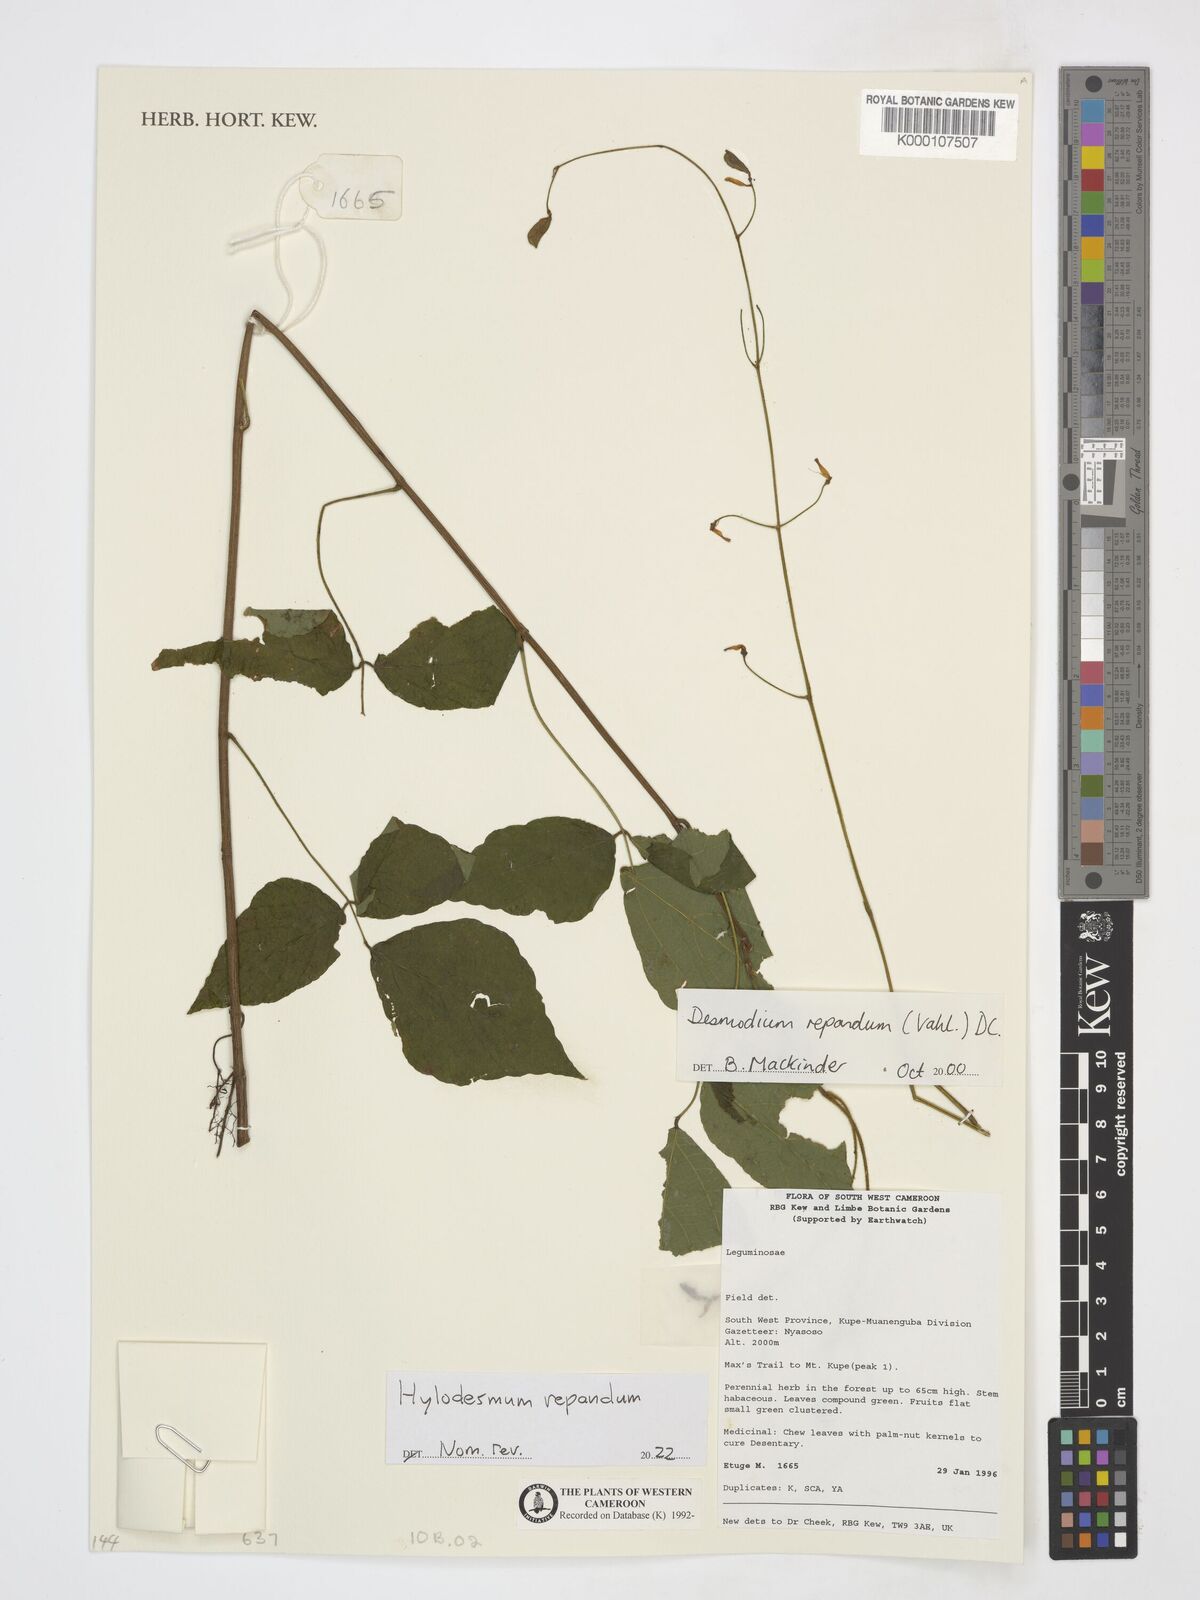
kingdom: Plantae
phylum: Tracheophyta
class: Magnoliopsida
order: Fabales
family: Fabaceae
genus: Desmodium
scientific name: Desmodium
